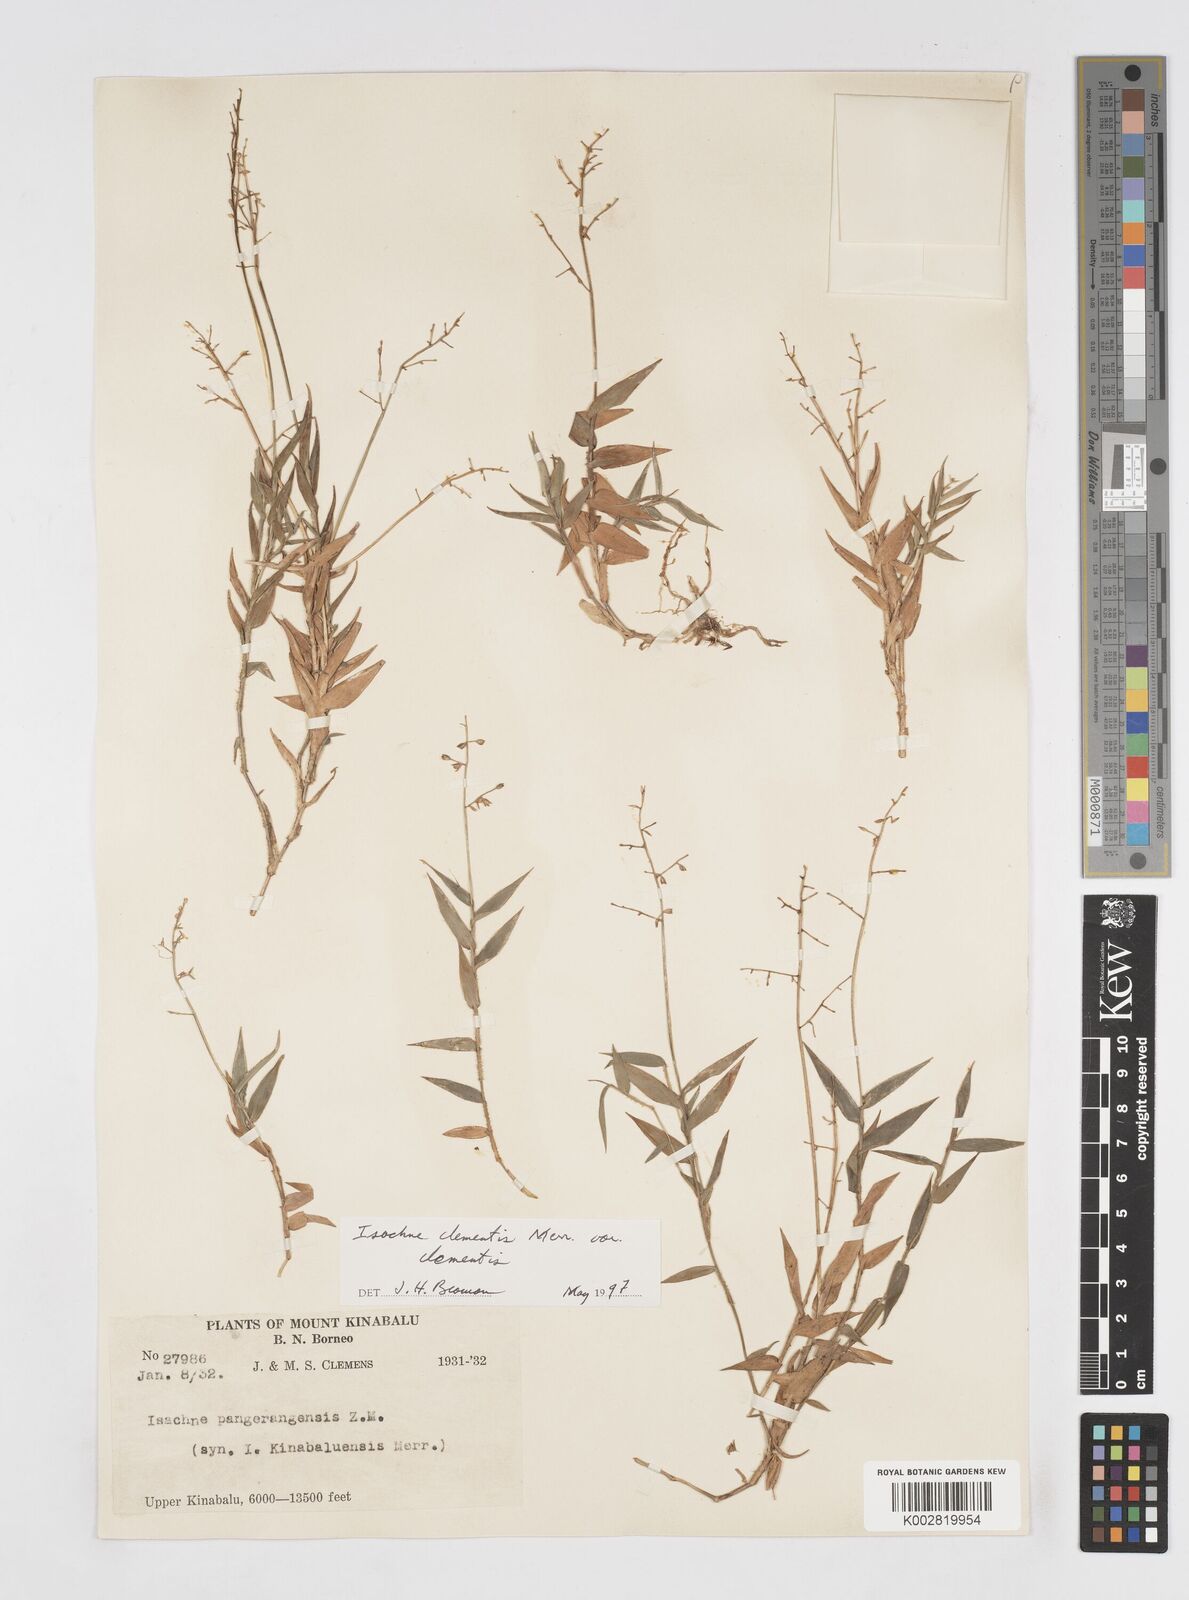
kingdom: Plantae
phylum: Tracheophyta
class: Liliopsida
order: Poales
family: Poaceae
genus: Isachne
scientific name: Isachne clementis
